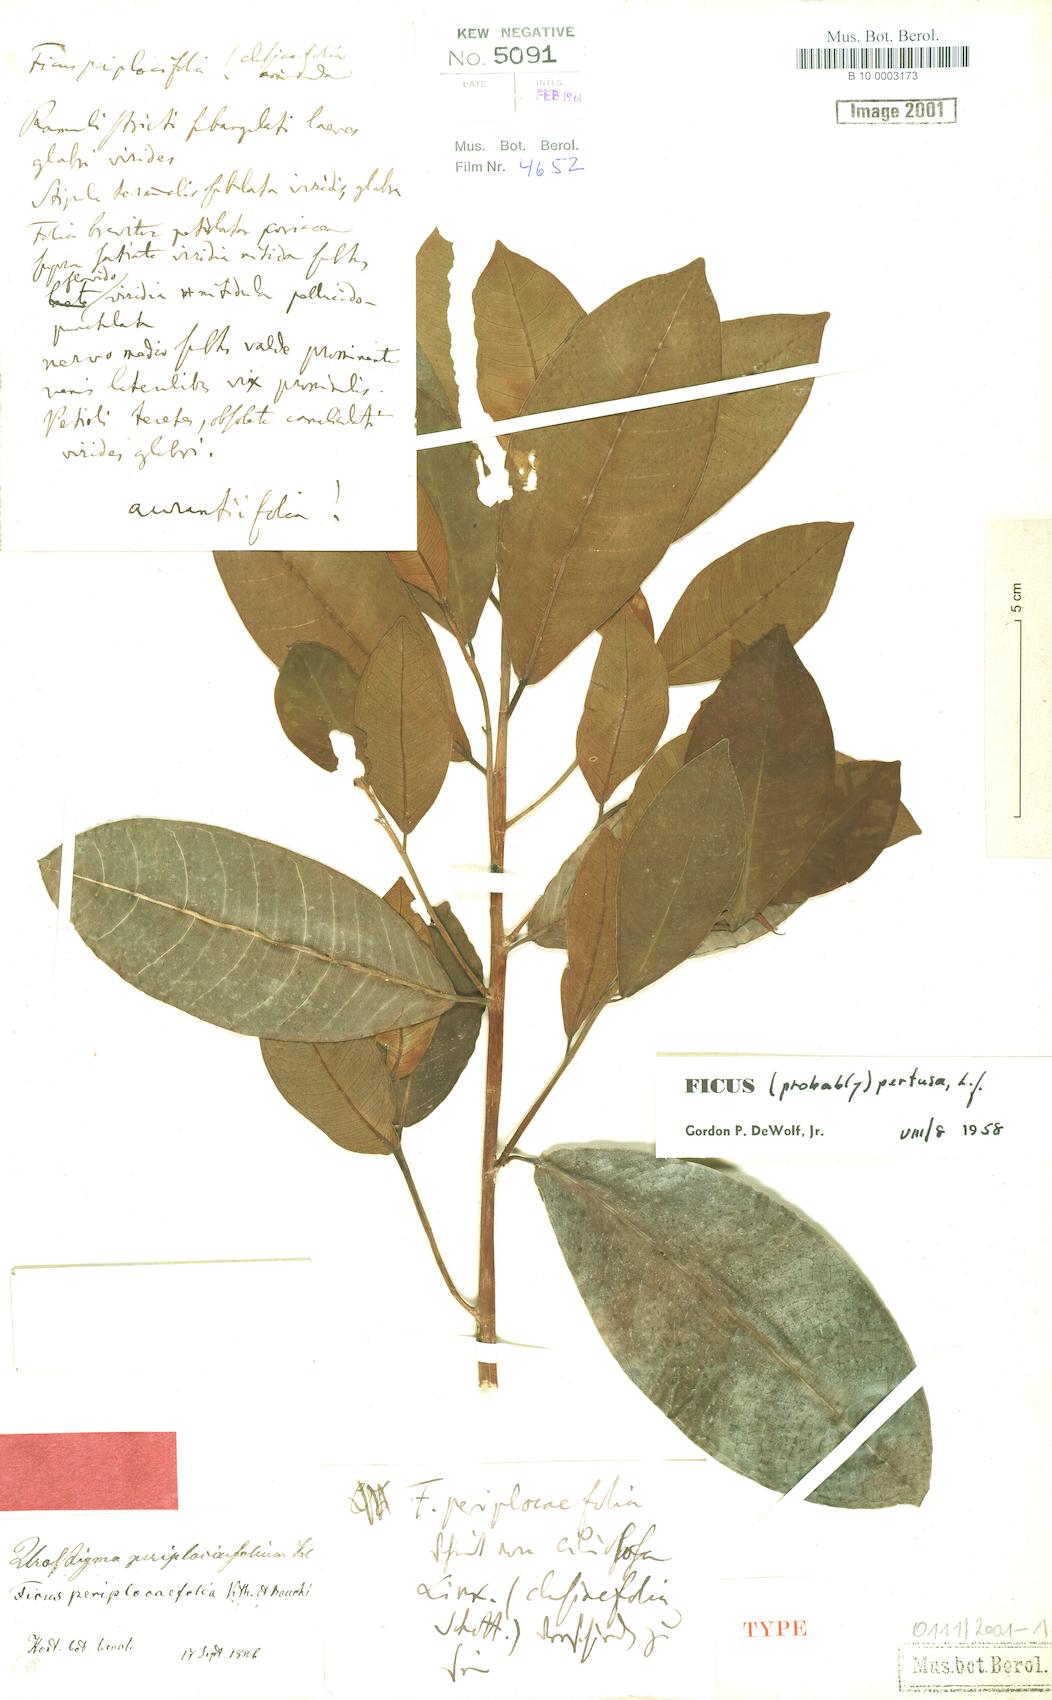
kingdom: Plantae
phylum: Tracheophyta
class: Magnoliopsida
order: Rosales
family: Moraceae
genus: Ficus
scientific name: Ficus americana
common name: Jamaican cherry fig
